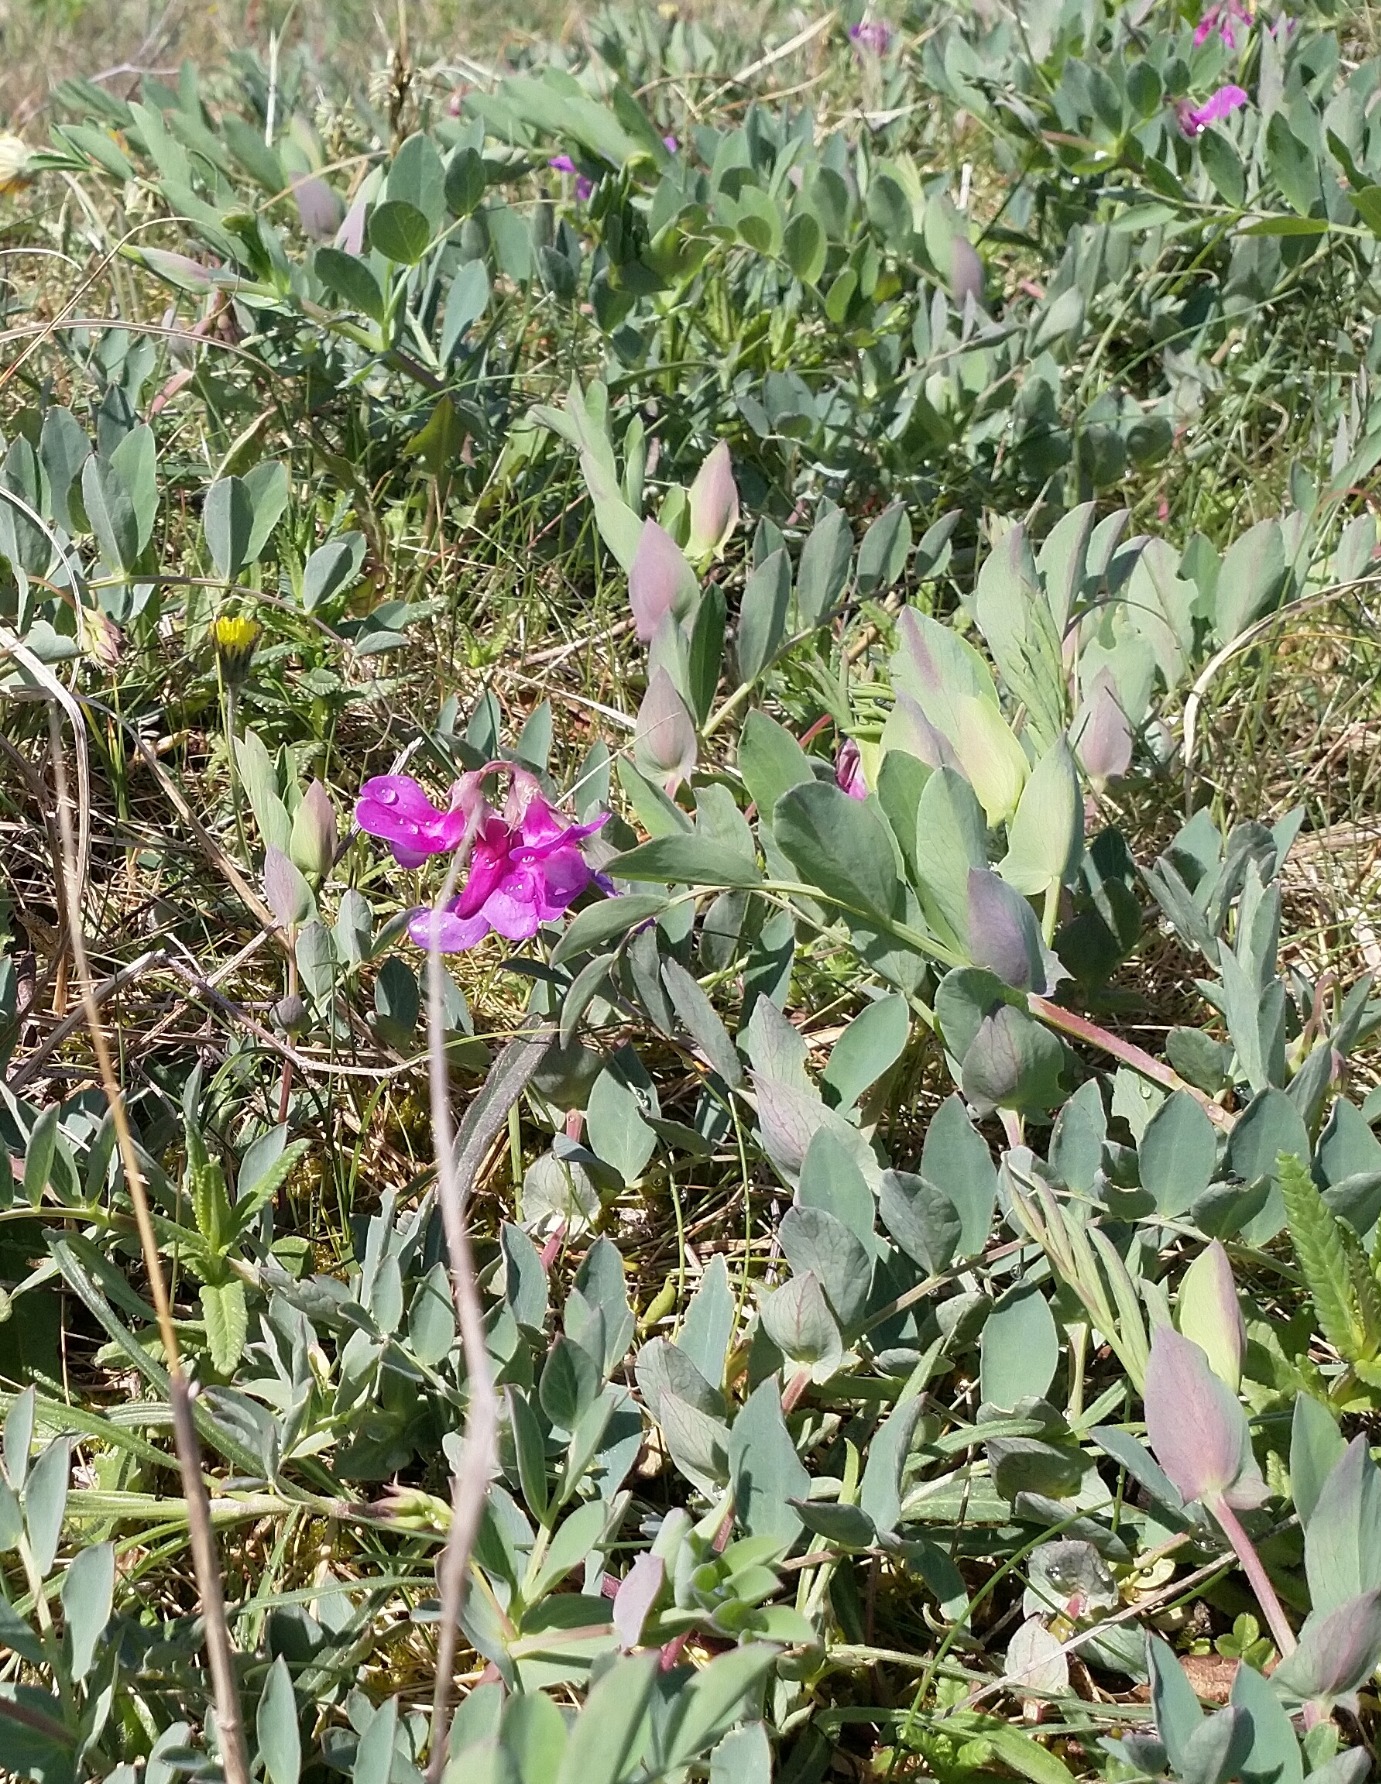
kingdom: Plantae
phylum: Tracheophyta
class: Magnoliopsida
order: Fabales
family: Fabaceae
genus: Lathyrus
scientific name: Lathyrus japonicus
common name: Klit-fladbælg
